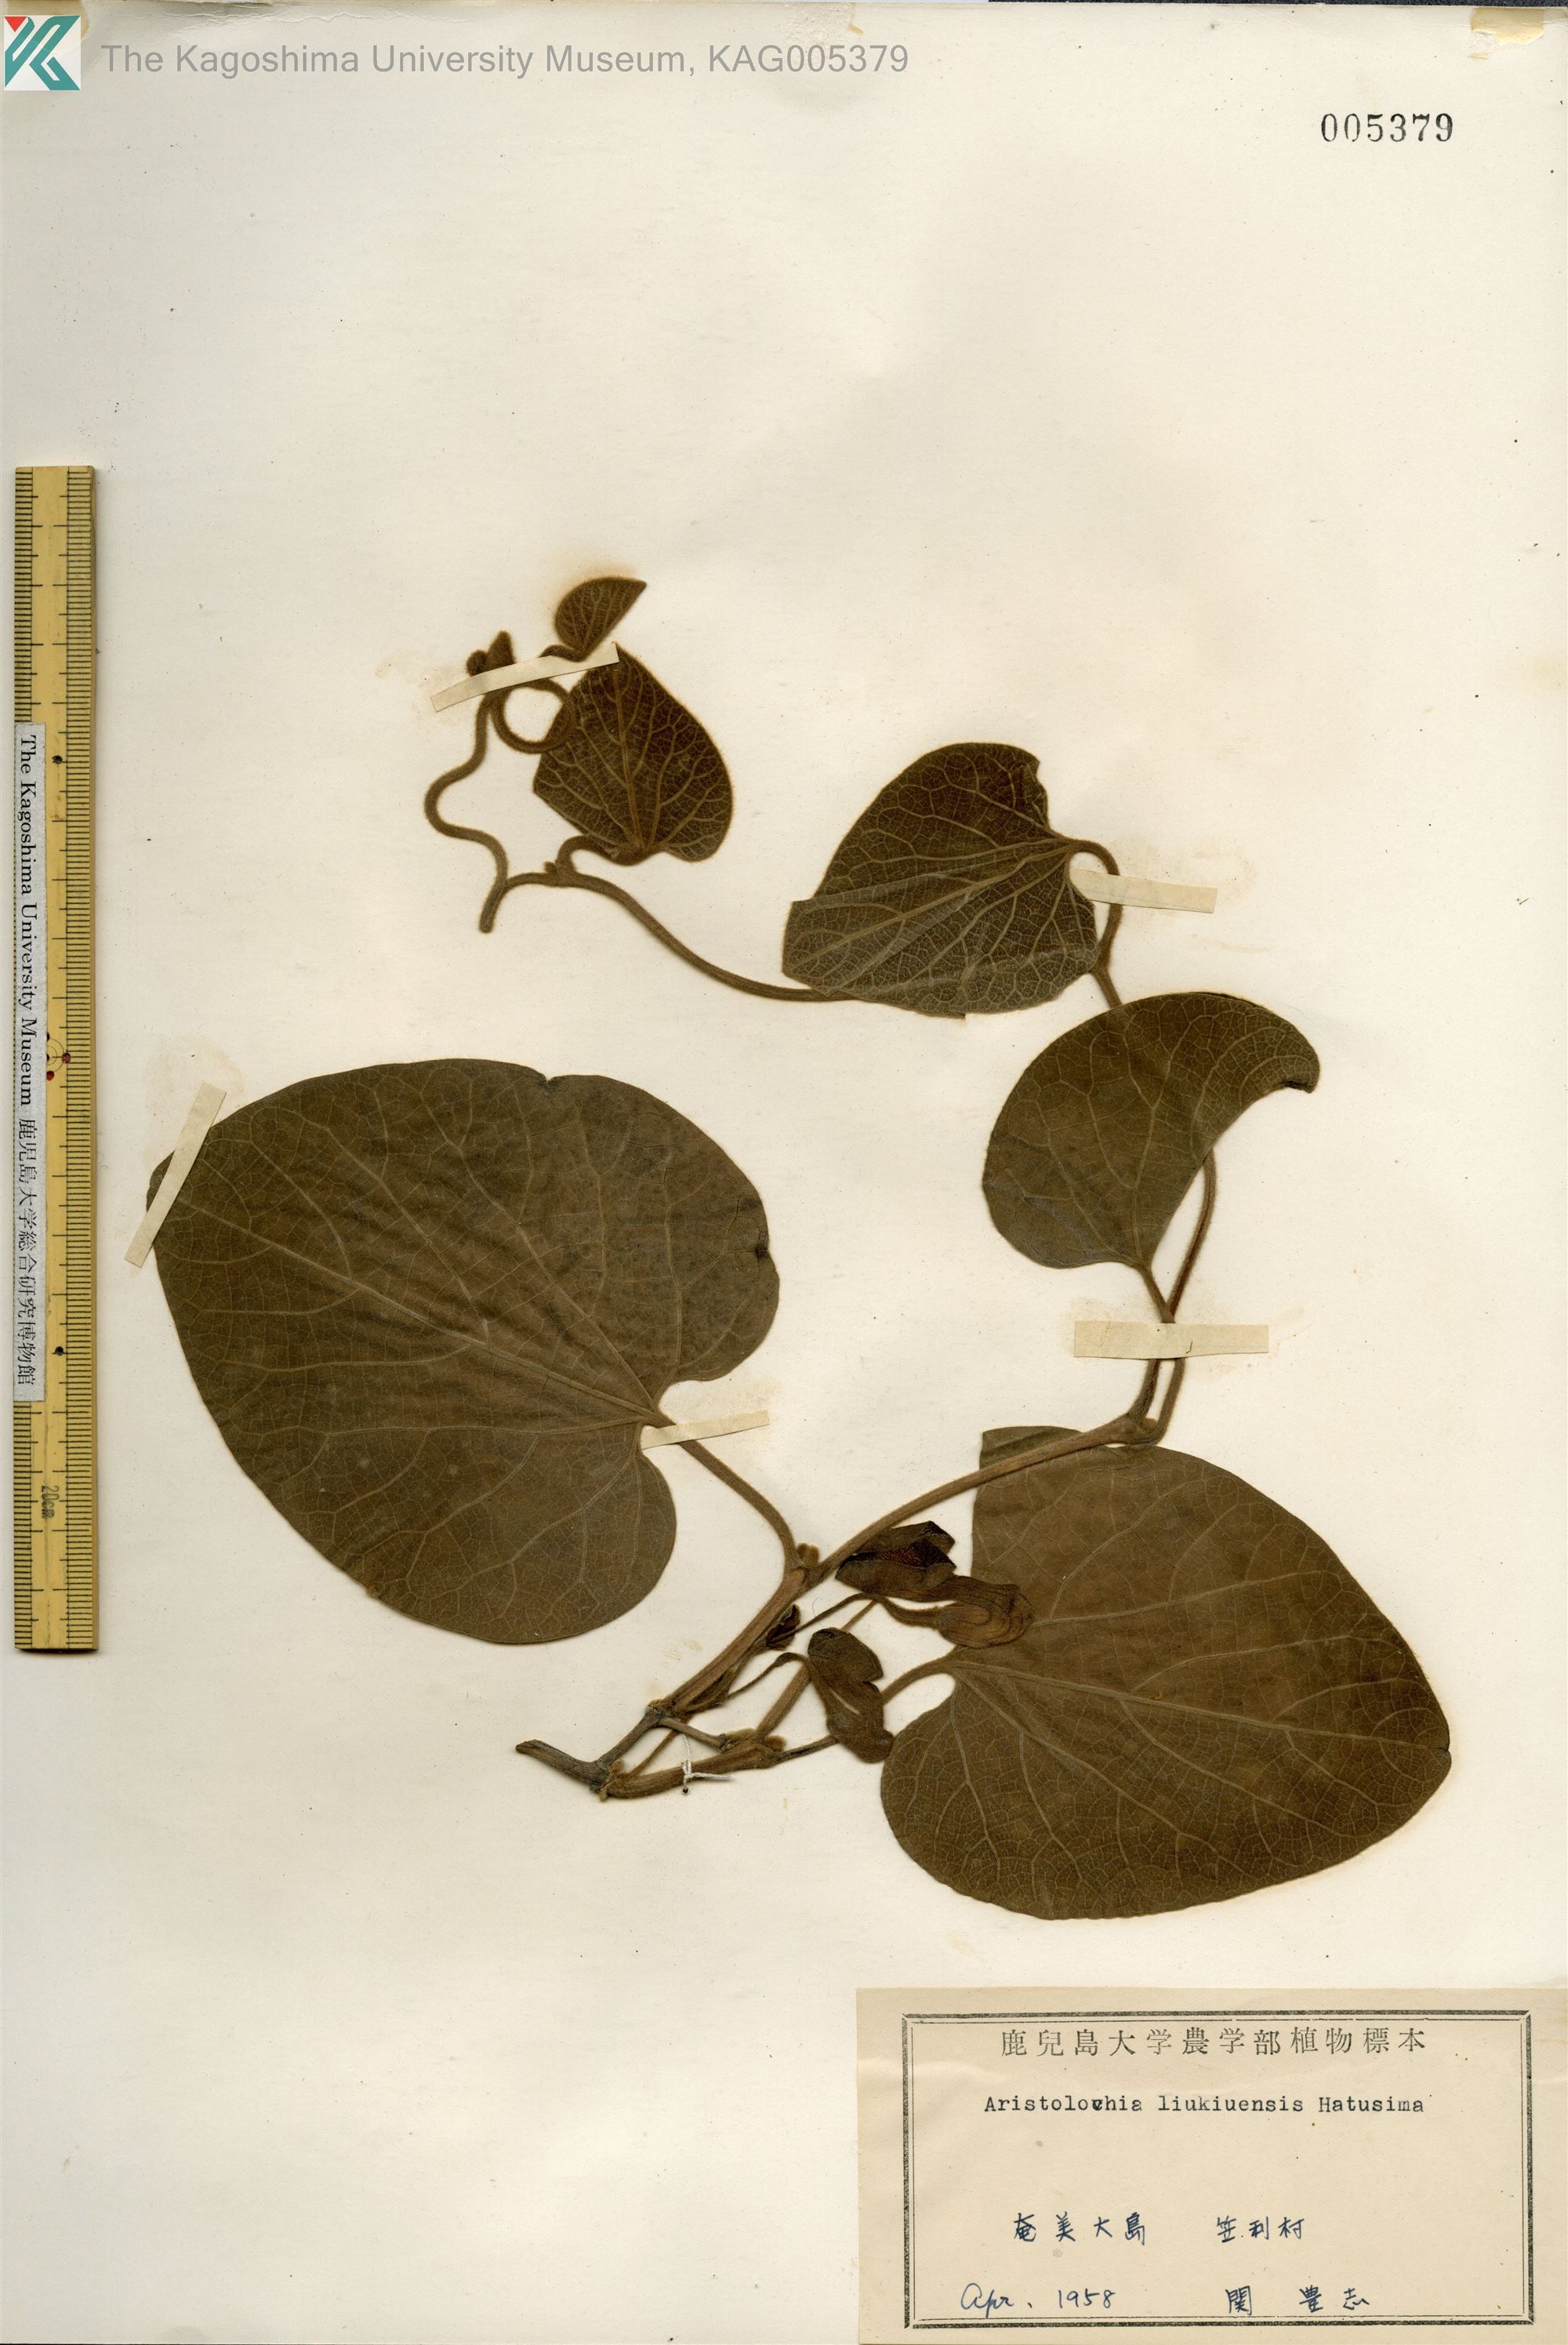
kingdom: Plantae
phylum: Tracheophyta
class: Magnoliopsida
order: Piperales
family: Aristolochiaceae
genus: Isotrema
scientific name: Isotrema liukiuense
